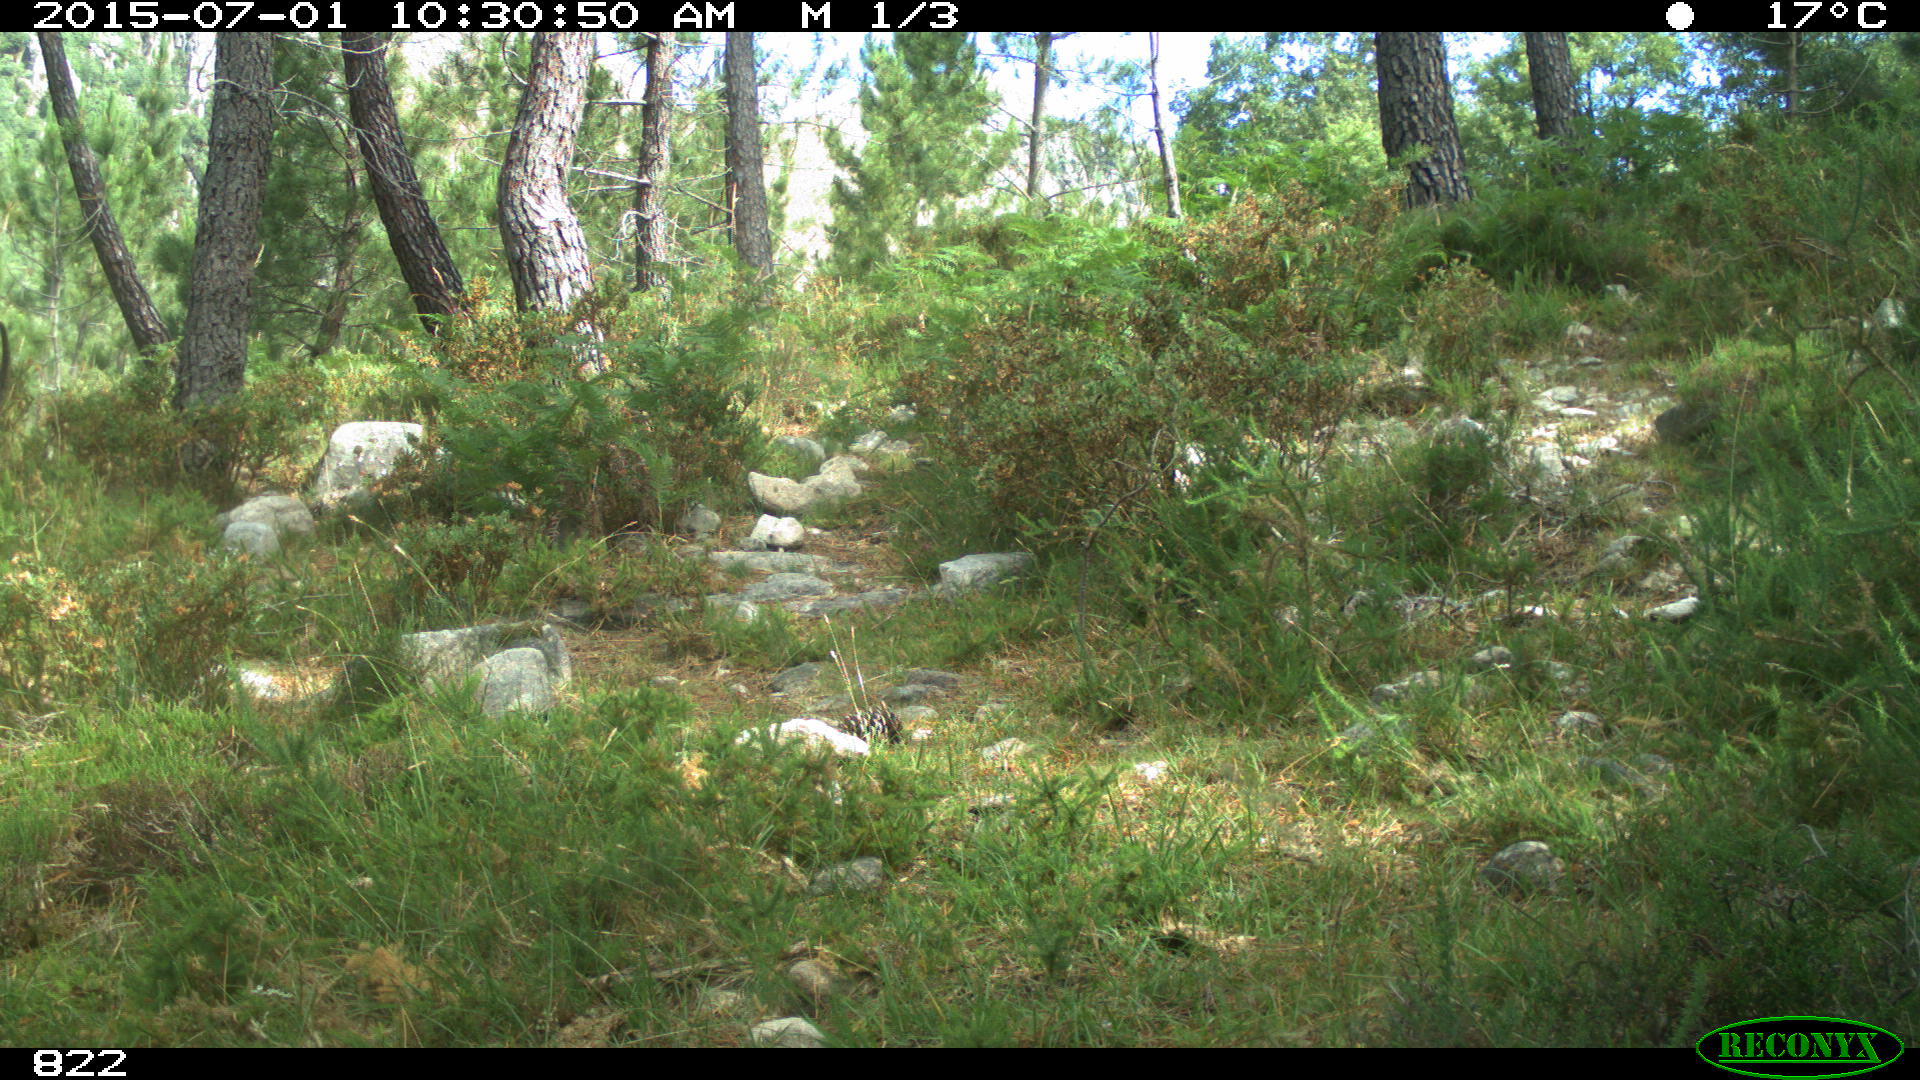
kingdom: Animalia
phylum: Chordata
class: Mammalia
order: Artiodactyla
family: Bovidae
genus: Bos
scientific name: Bos taurus
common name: Domesticated cattle
